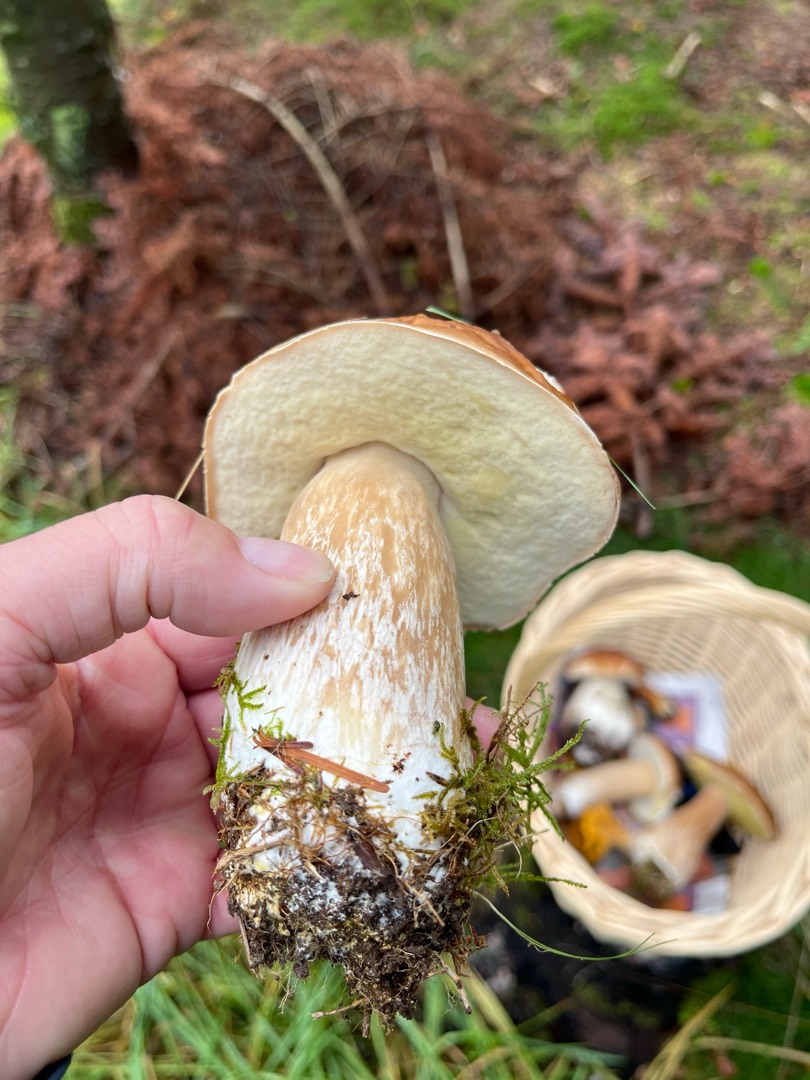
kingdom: Fungi
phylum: Basidiomycota
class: Agaricomycetes
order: Boletales
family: Boletaceae
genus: Boletus
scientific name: Boletus edulis
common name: Spiselig rørhat/karl johan
